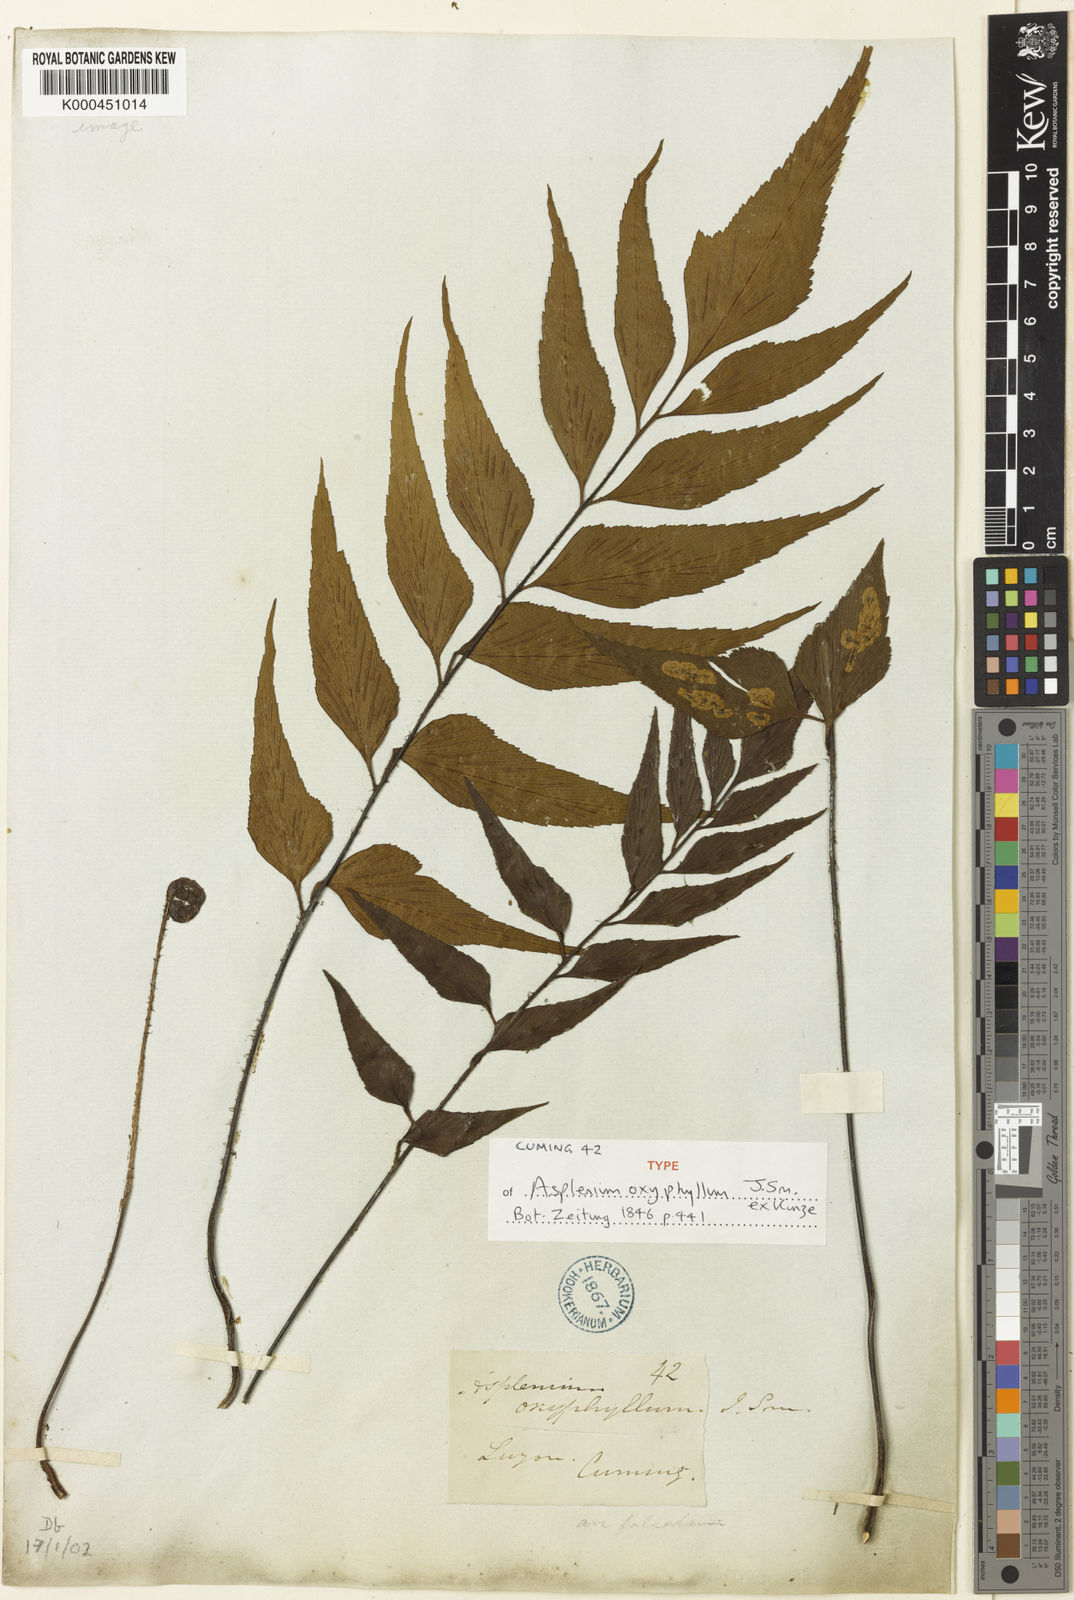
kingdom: Plantae
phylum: Tracheophyta
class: Polypodiopsida
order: Polypodiales
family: Aspleniaceae
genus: Asplenium
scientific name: Asplenium macrophyllum
